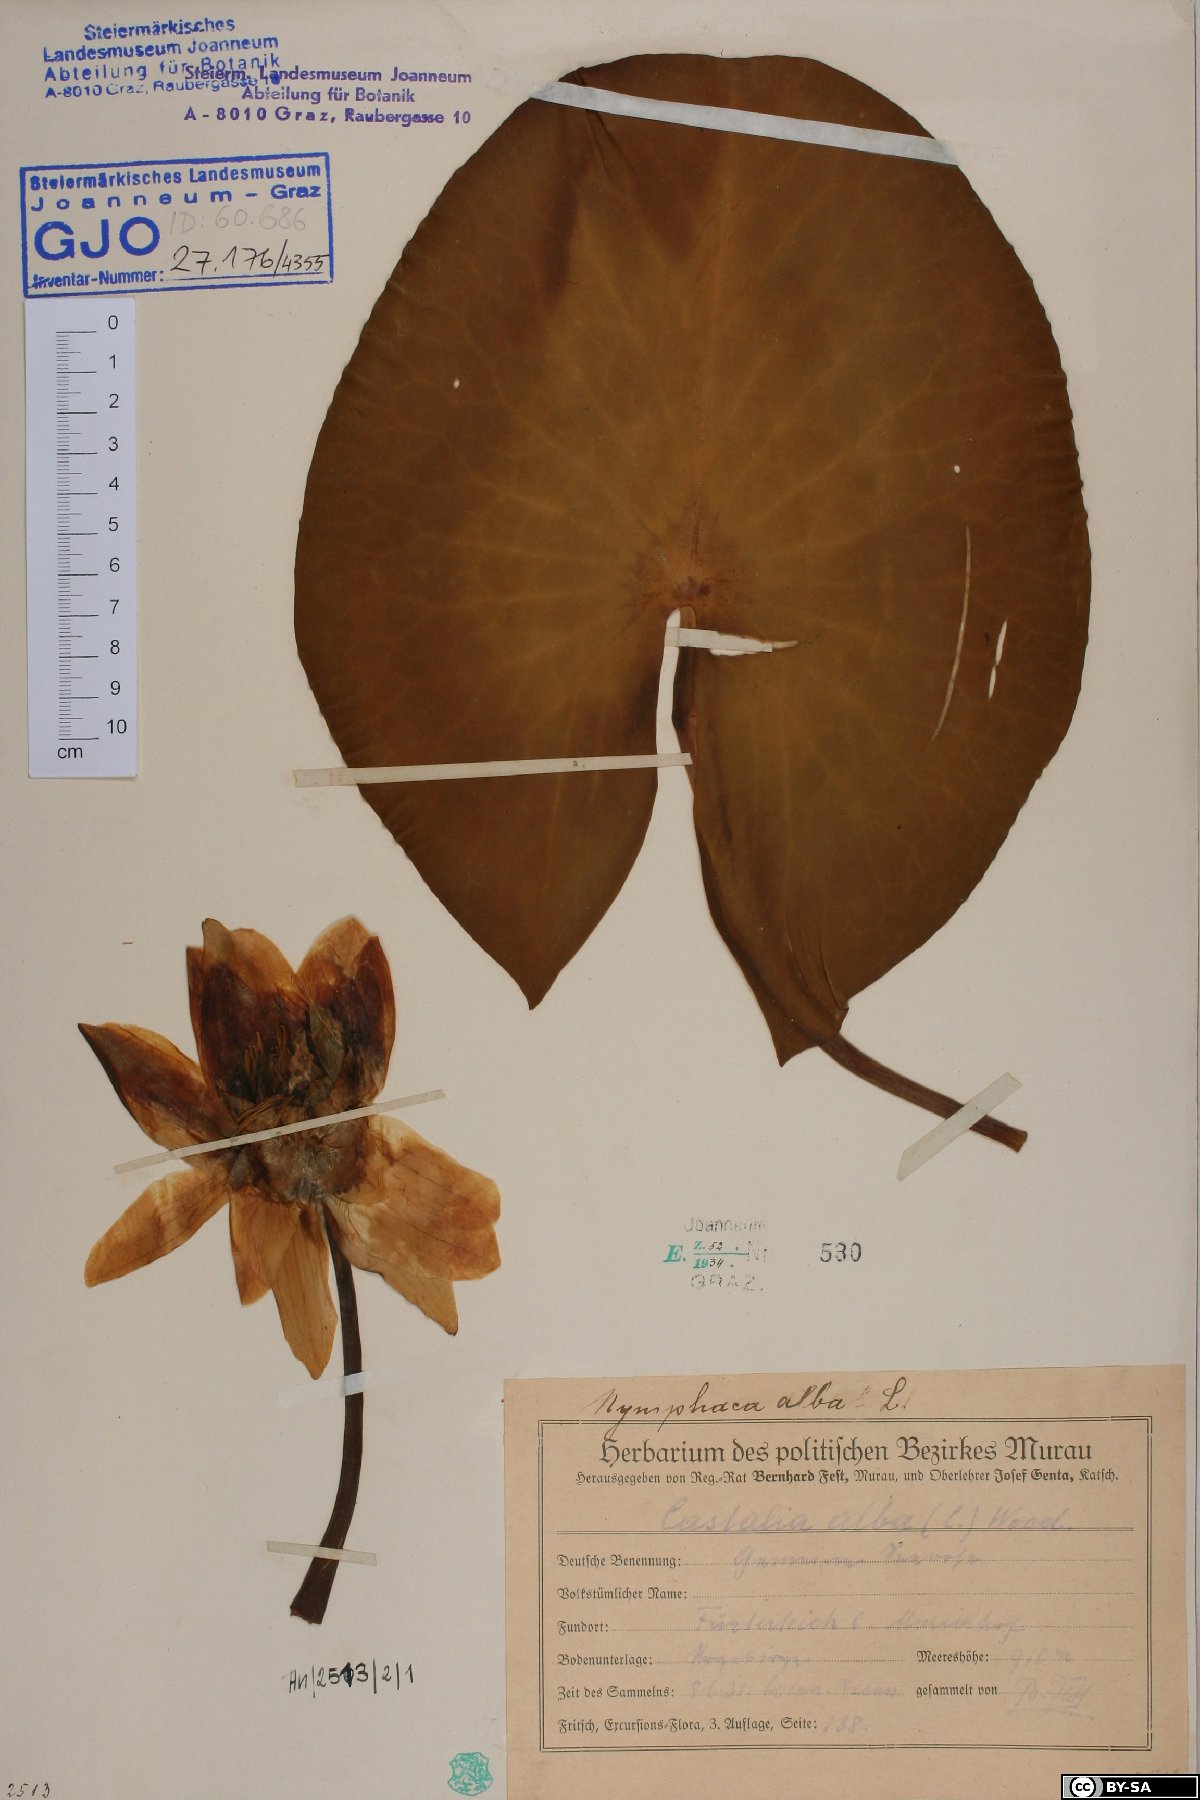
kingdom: Plantae
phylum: Tracheophyta
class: Magnoliopsida
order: Nymphaeales
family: Nymphaeaceae
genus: Nymphaea
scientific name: Nymphaea alba
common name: White water-lily
